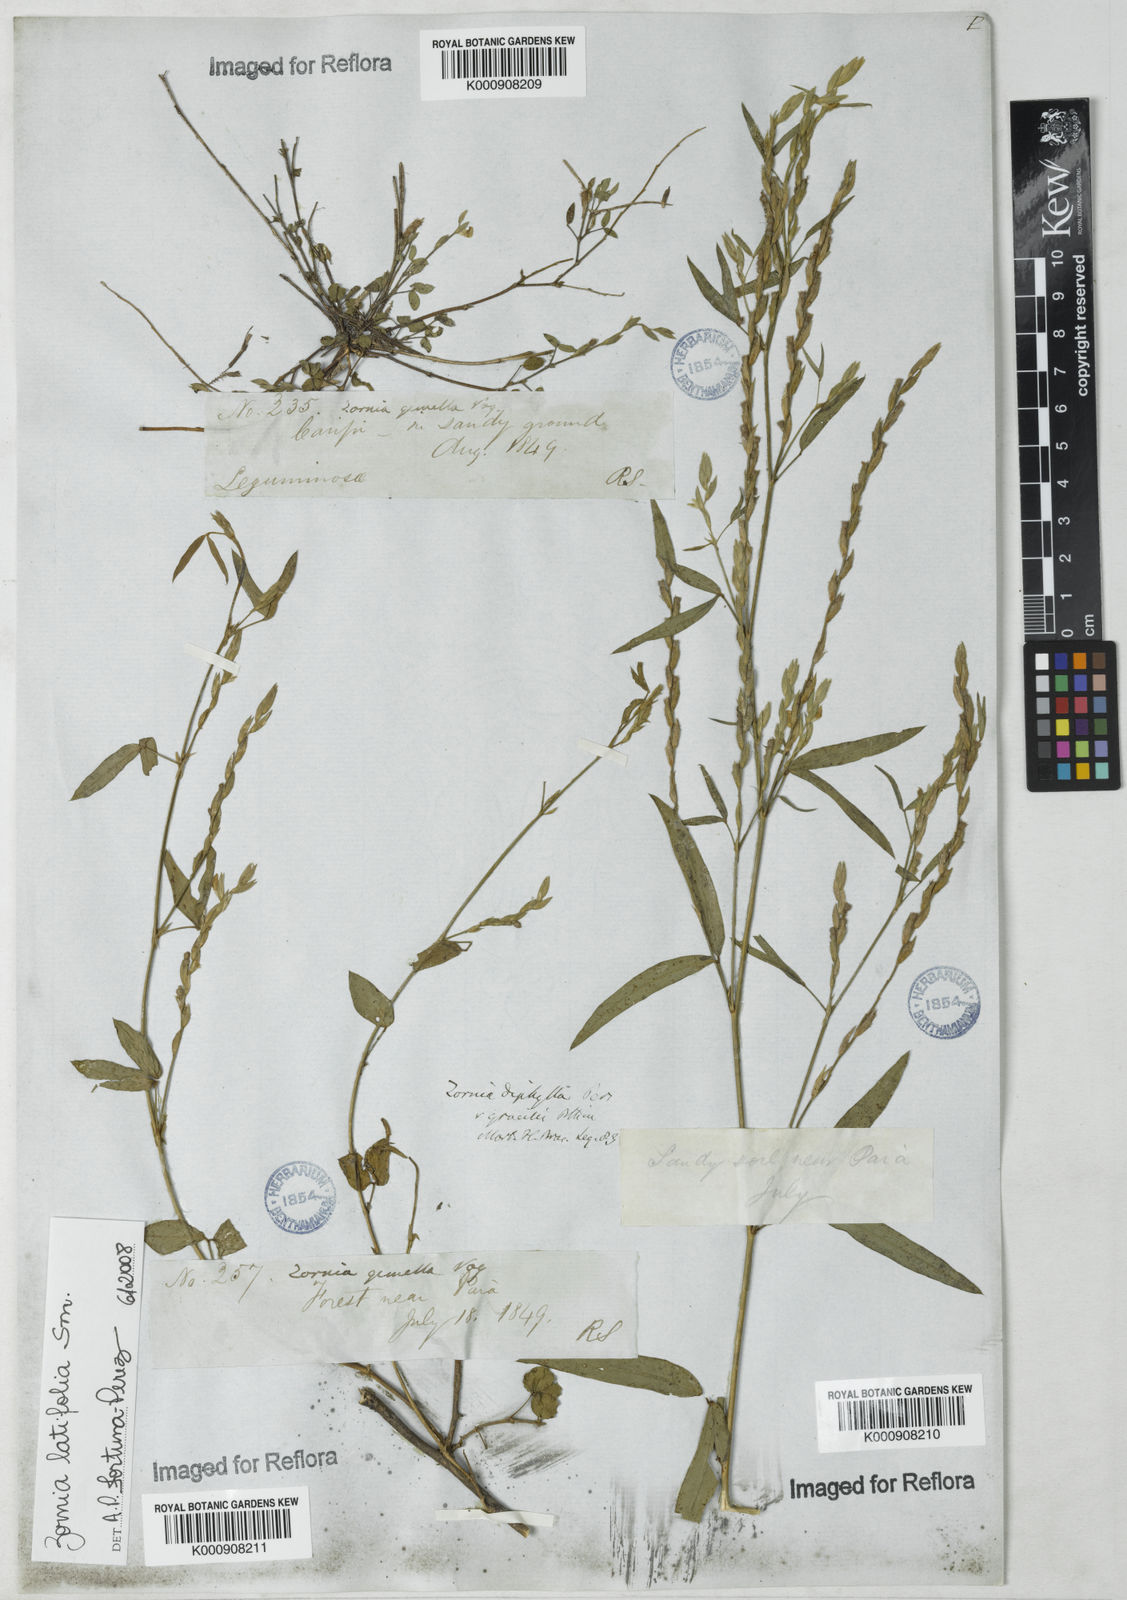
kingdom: Plantae
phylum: Tracheophyta
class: Magnoliopsida
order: Fabales
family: Fabaceae
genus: Zornia
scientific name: Zornia latifolia
